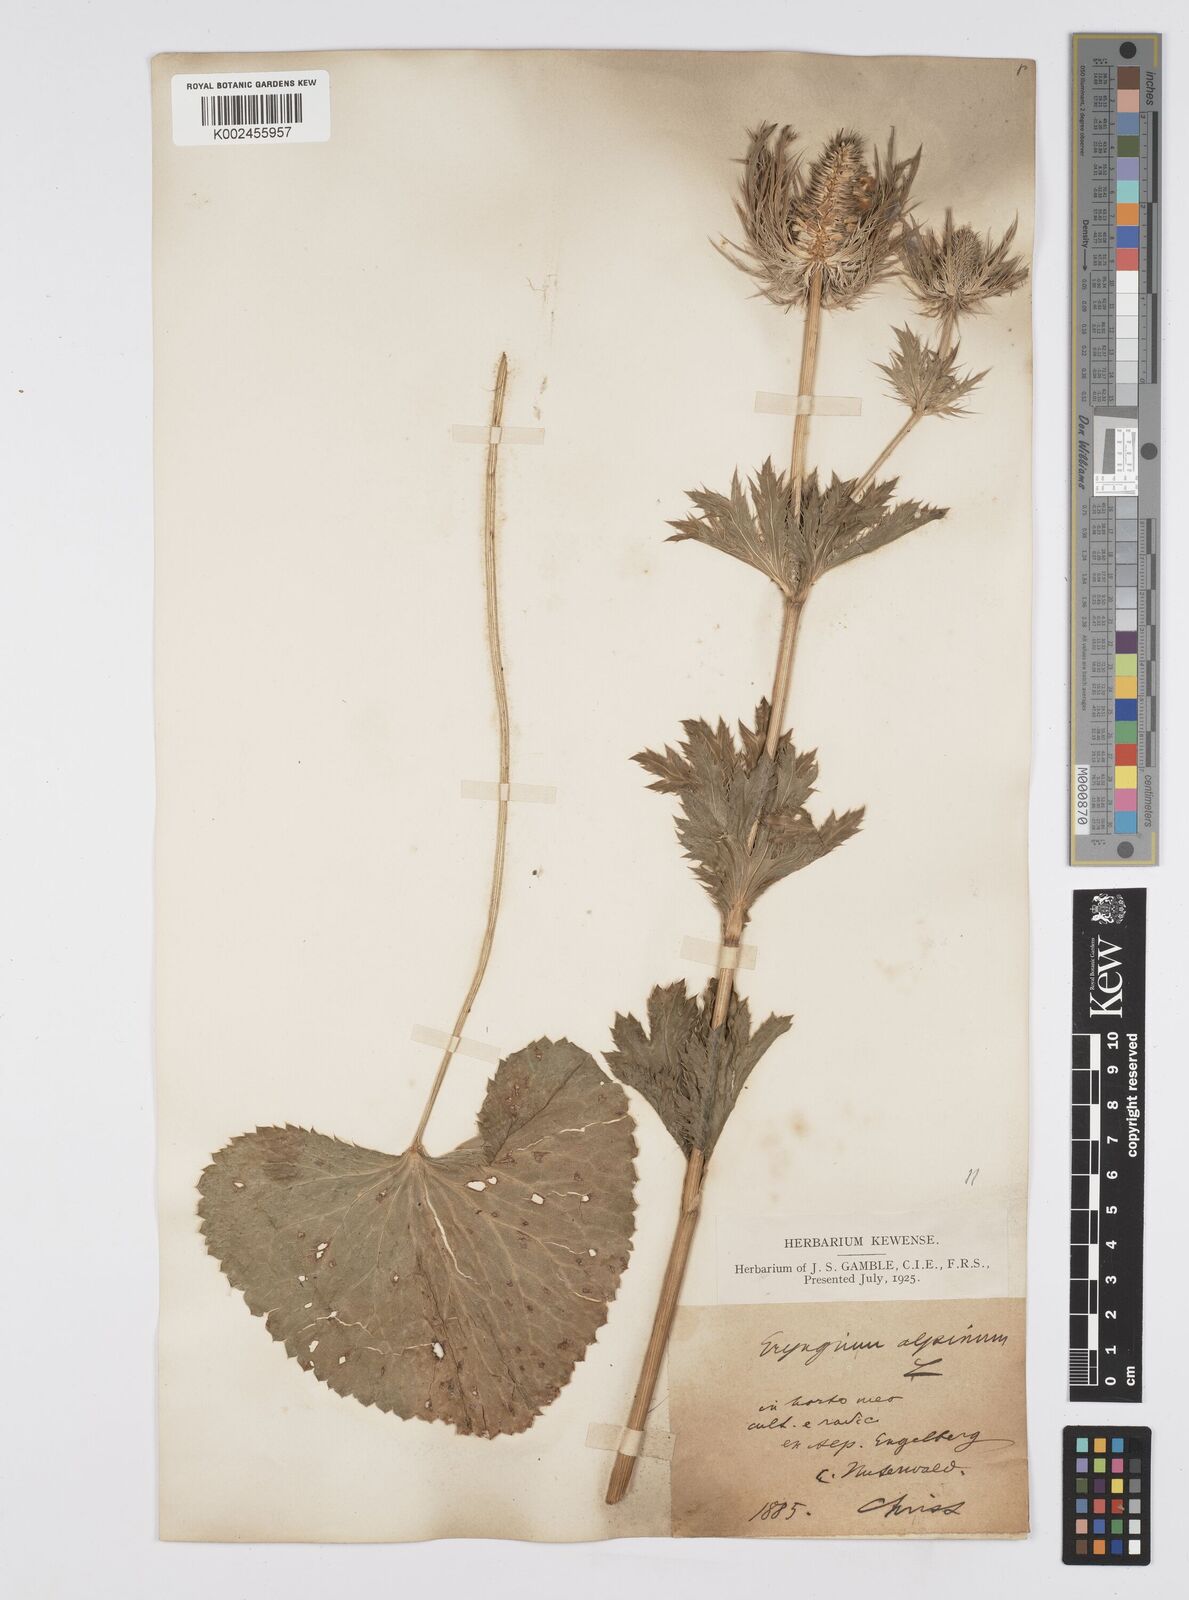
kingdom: Plantae
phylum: Tracheophyta
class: Magnoliopsida
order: Apiales
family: Apiaceae
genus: Eryngium
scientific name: Eryngium alpinum
